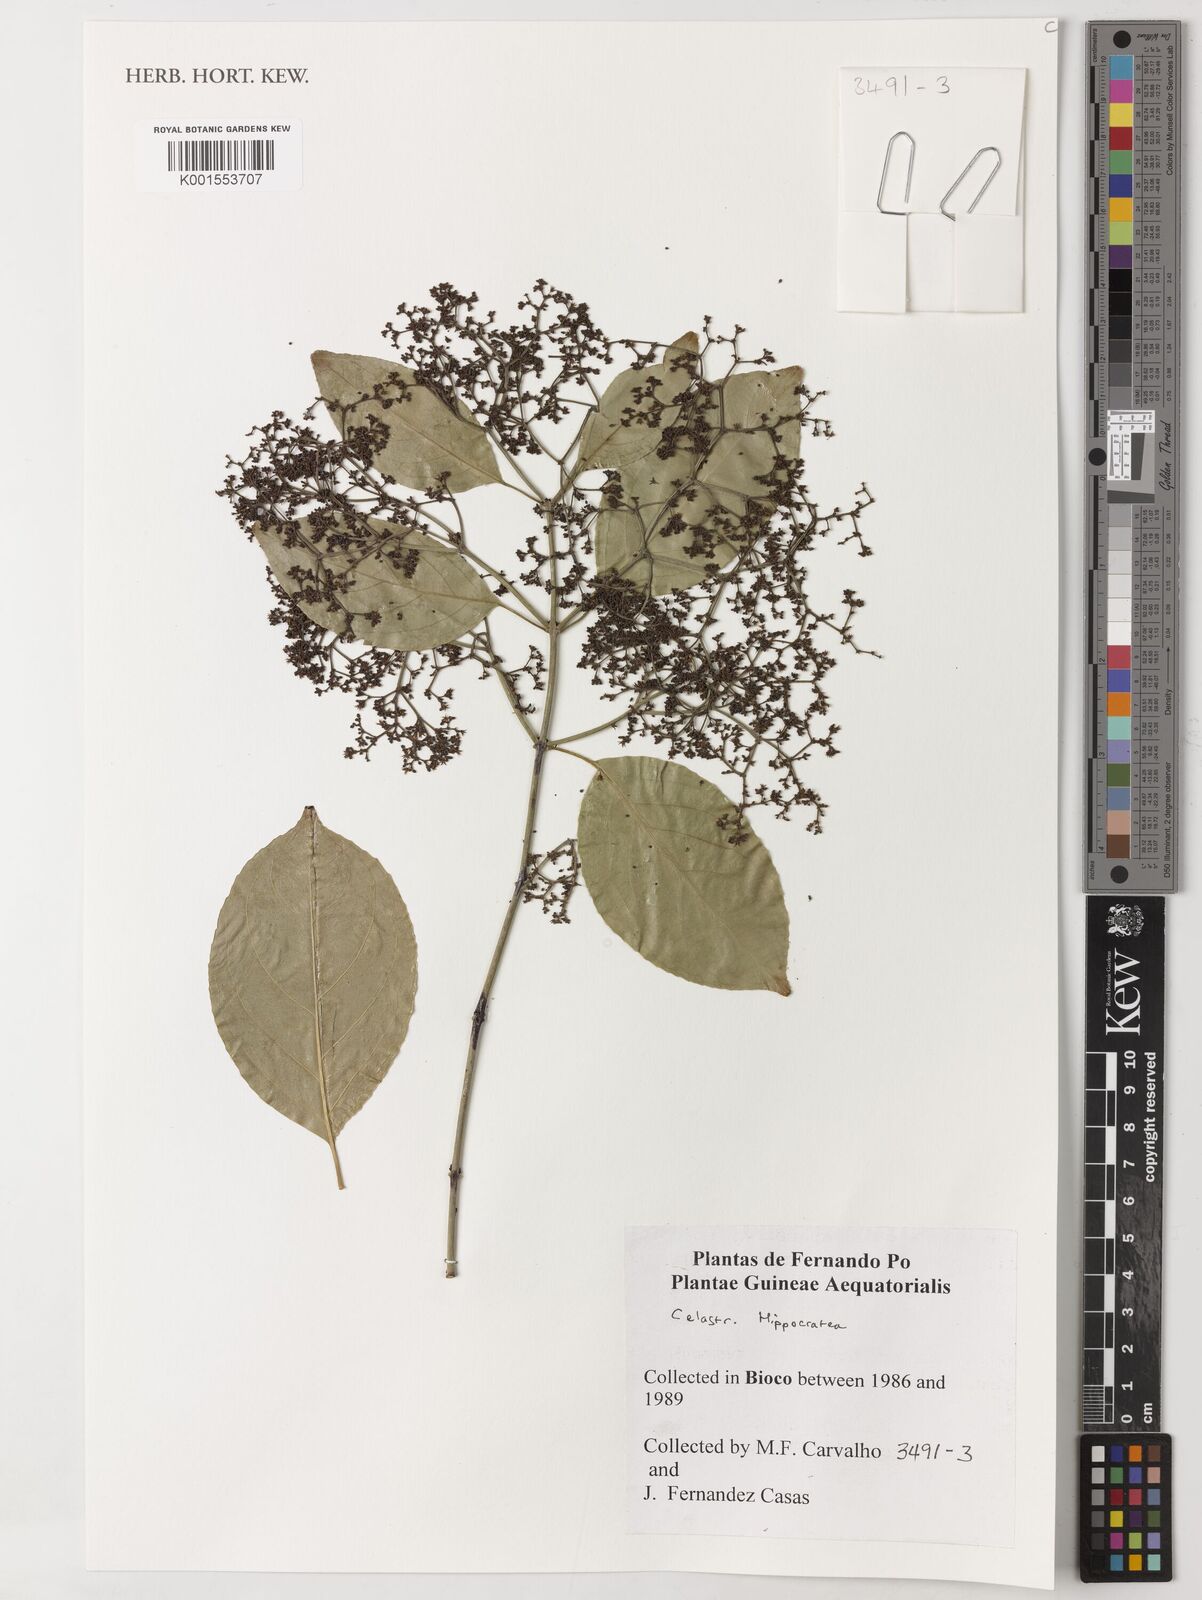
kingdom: Plantae
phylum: Tracheophyta
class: Magnoliopsida
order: Celastrales
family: Celastraceae
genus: Hippocratea
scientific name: Hippocratea
